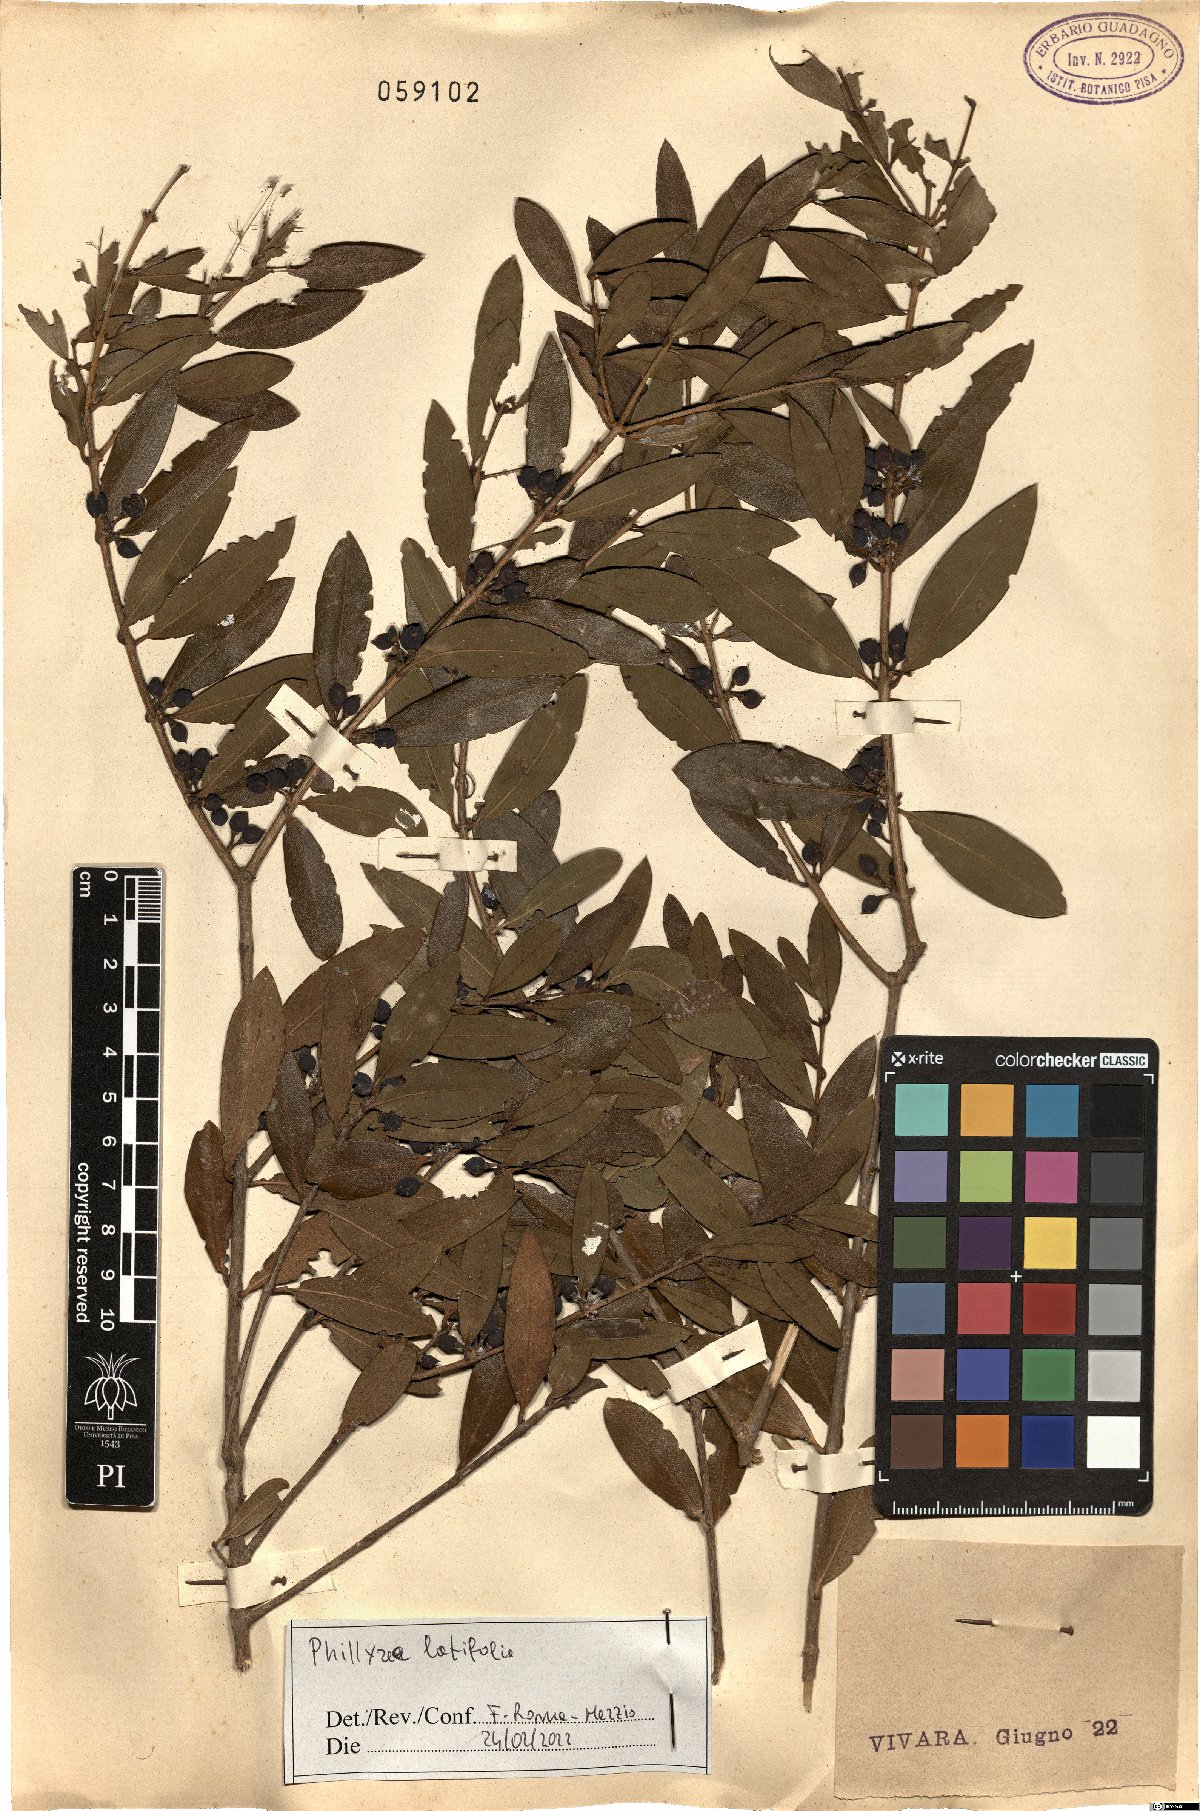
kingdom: Plantae
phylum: Tracheophyta
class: Magnoliopsida
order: Lamiales
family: Oleaceae
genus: Phillyrea
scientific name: Phillyrea latifolia
